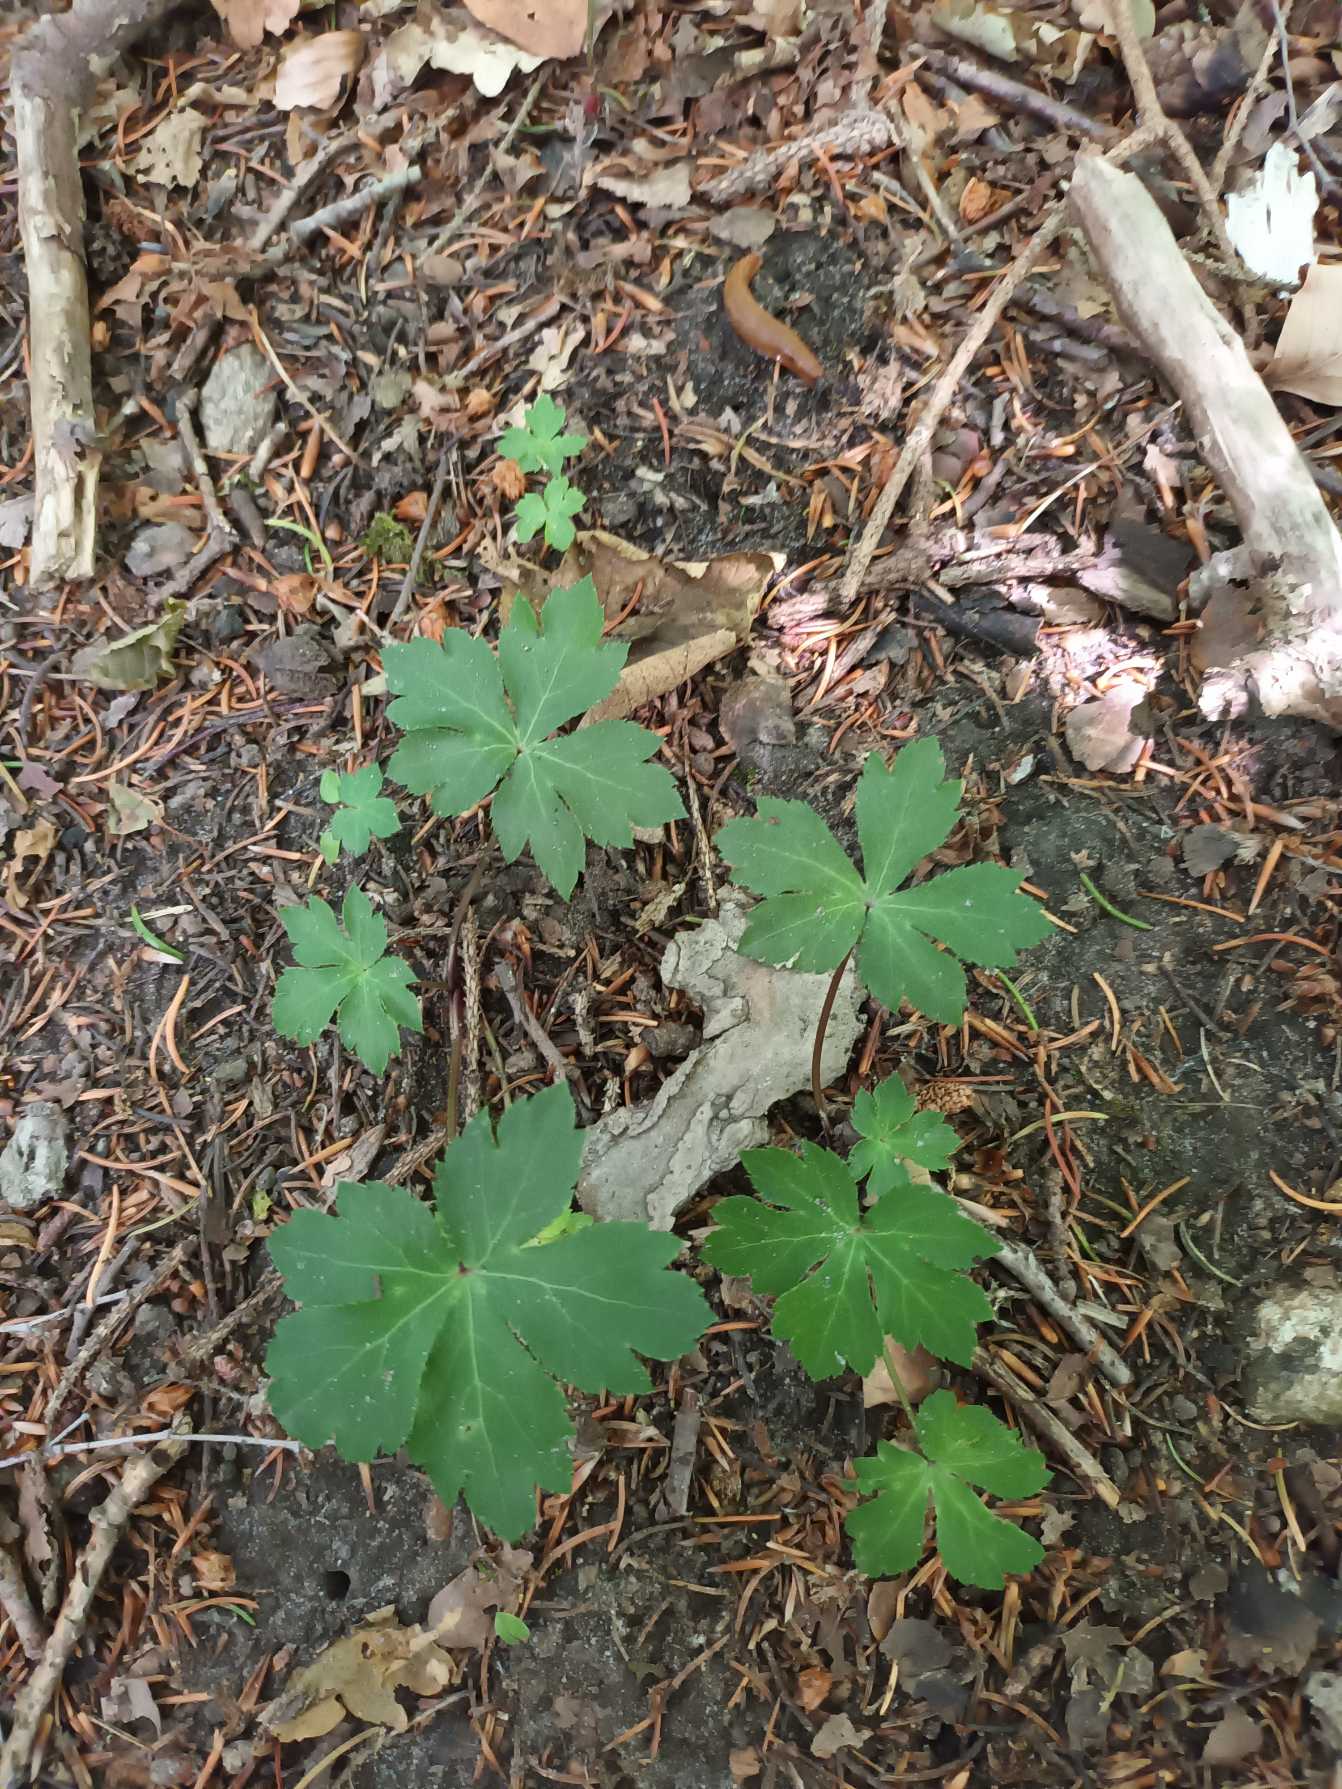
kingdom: Plantae
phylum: Tracheophyta
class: Magnoliopsida
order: Apiales
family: Apiaceae
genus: Sanicula
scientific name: Sanicula europaea
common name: Sanikel
